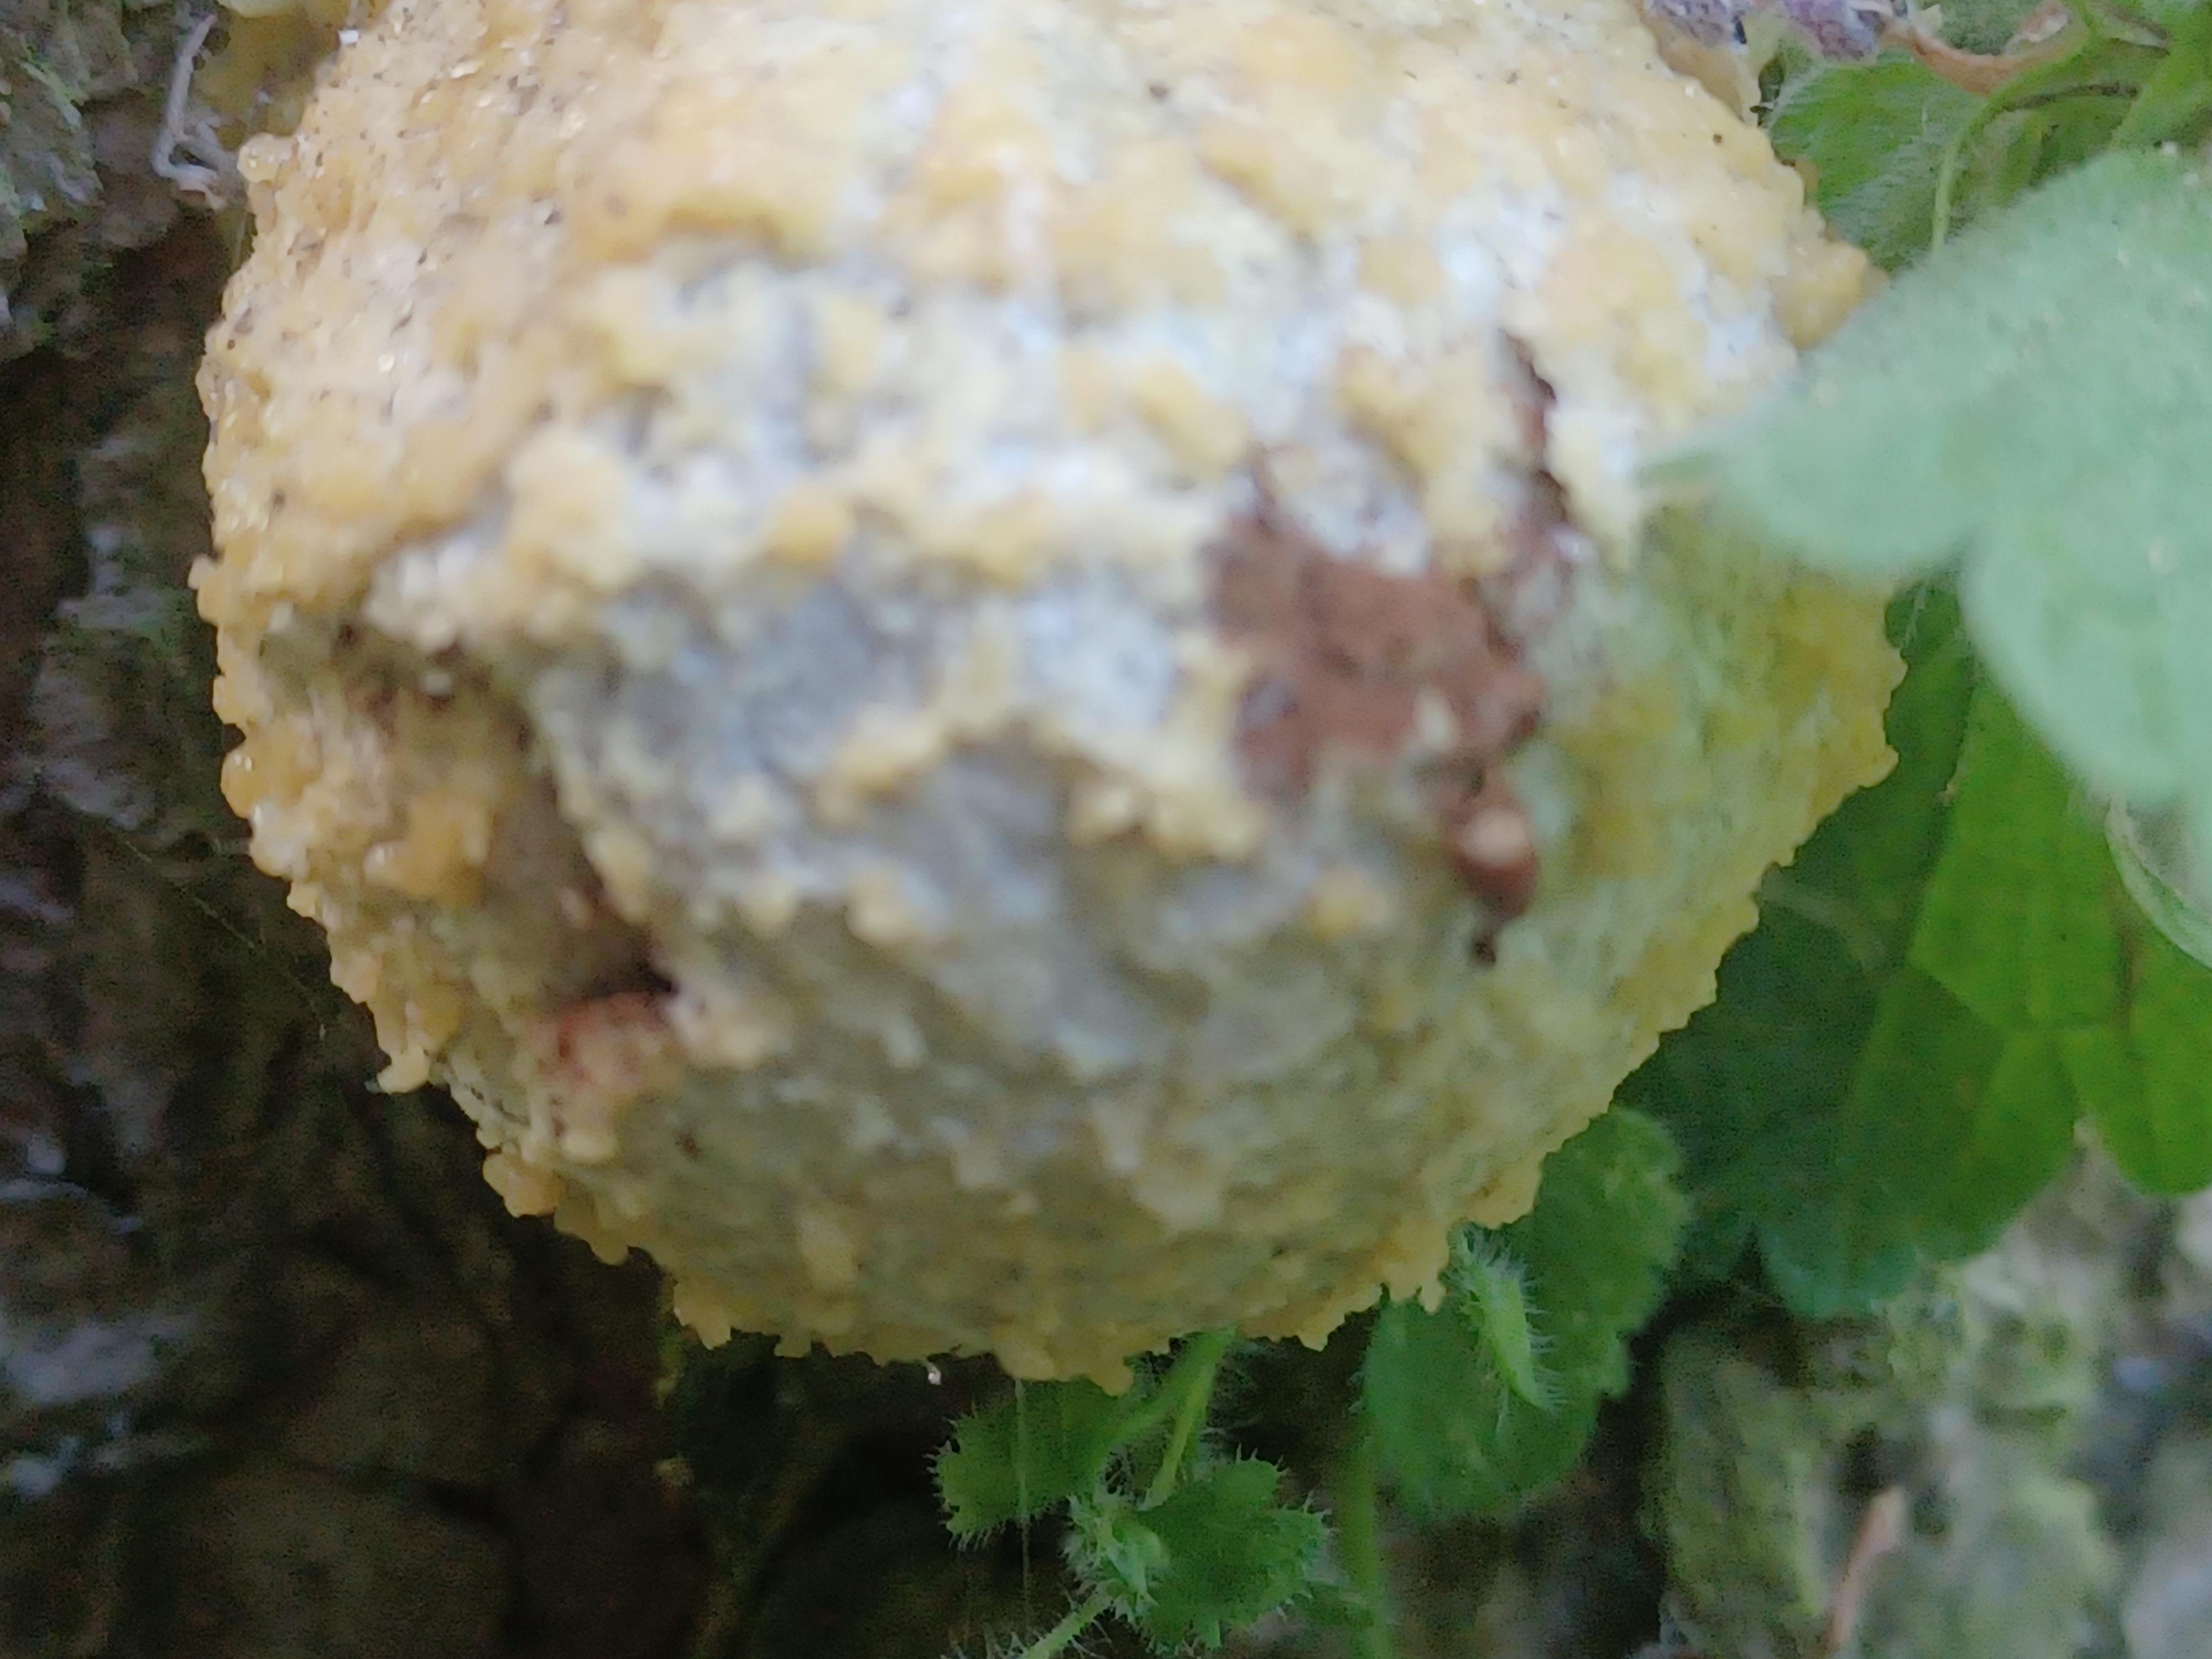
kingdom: Protozoa
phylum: Mycetozoa
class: Myxomycetes
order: Cribrariales
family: Tubiferaceae
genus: Reticularia
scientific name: Reticularia lycoperdon
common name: skinnende støvpude
